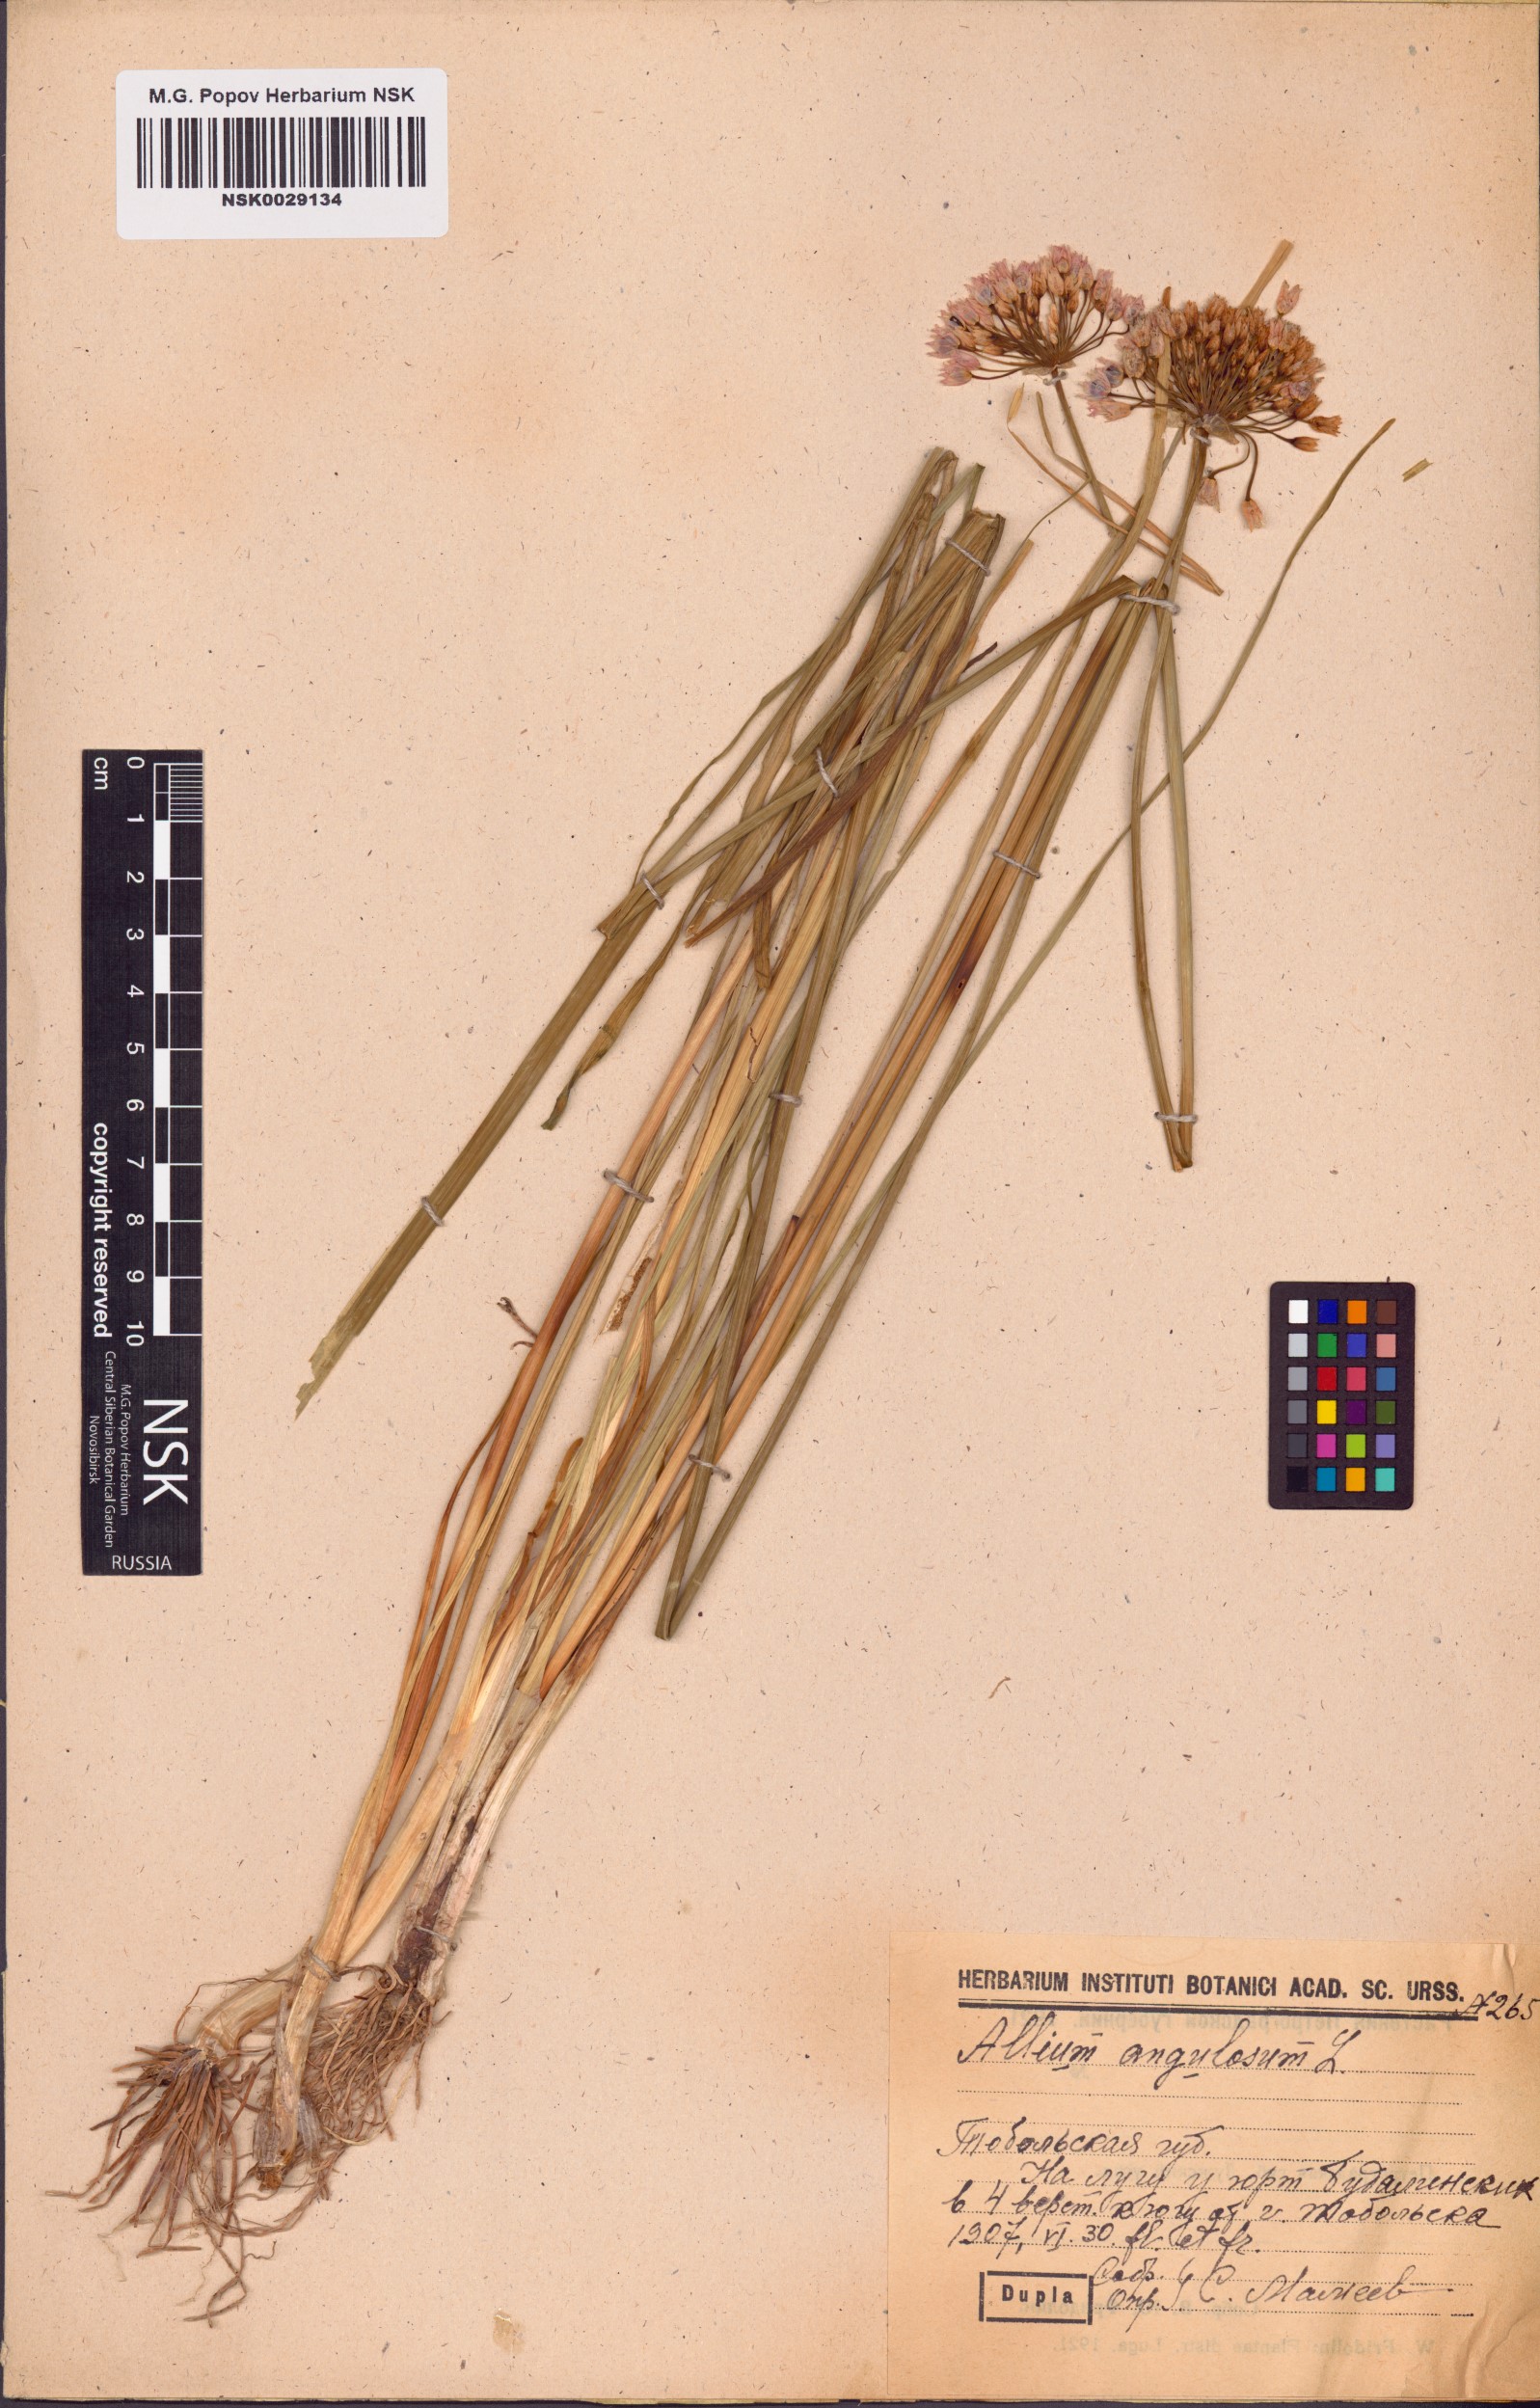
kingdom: Plantae
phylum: Tracheophyta
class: Liliopsida
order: Asparagales
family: Amaryllidaceae
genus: Allium
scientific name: Allium angulosum
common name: Mouse garlic
